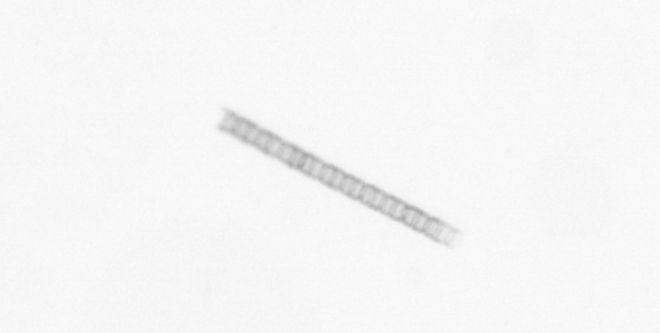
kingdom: Chromista
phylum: Ochrophyta
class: Bacillariophyceae
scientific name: Bacillariophyceae
